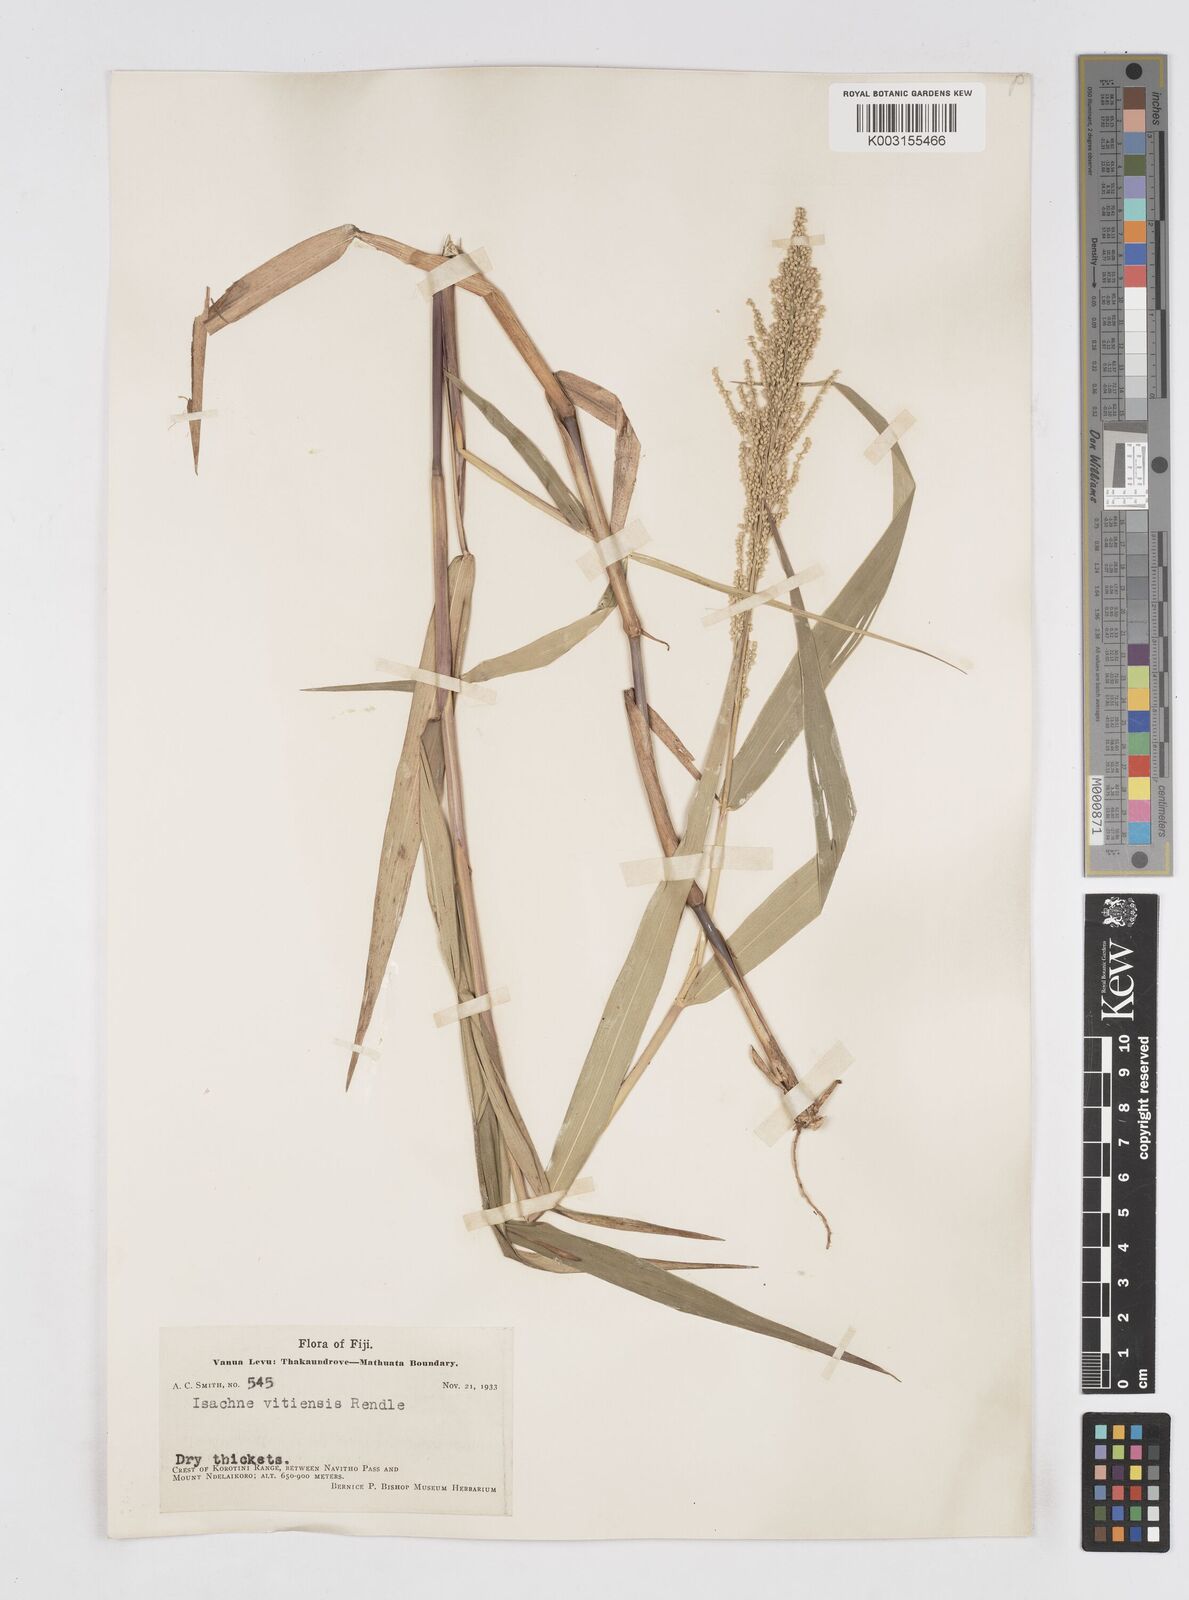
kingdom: Plantae
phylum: Tracheophyta
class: Liliopsida
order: Poales
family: Poaceae
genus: Isachne
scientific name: Isachne vitiensis
